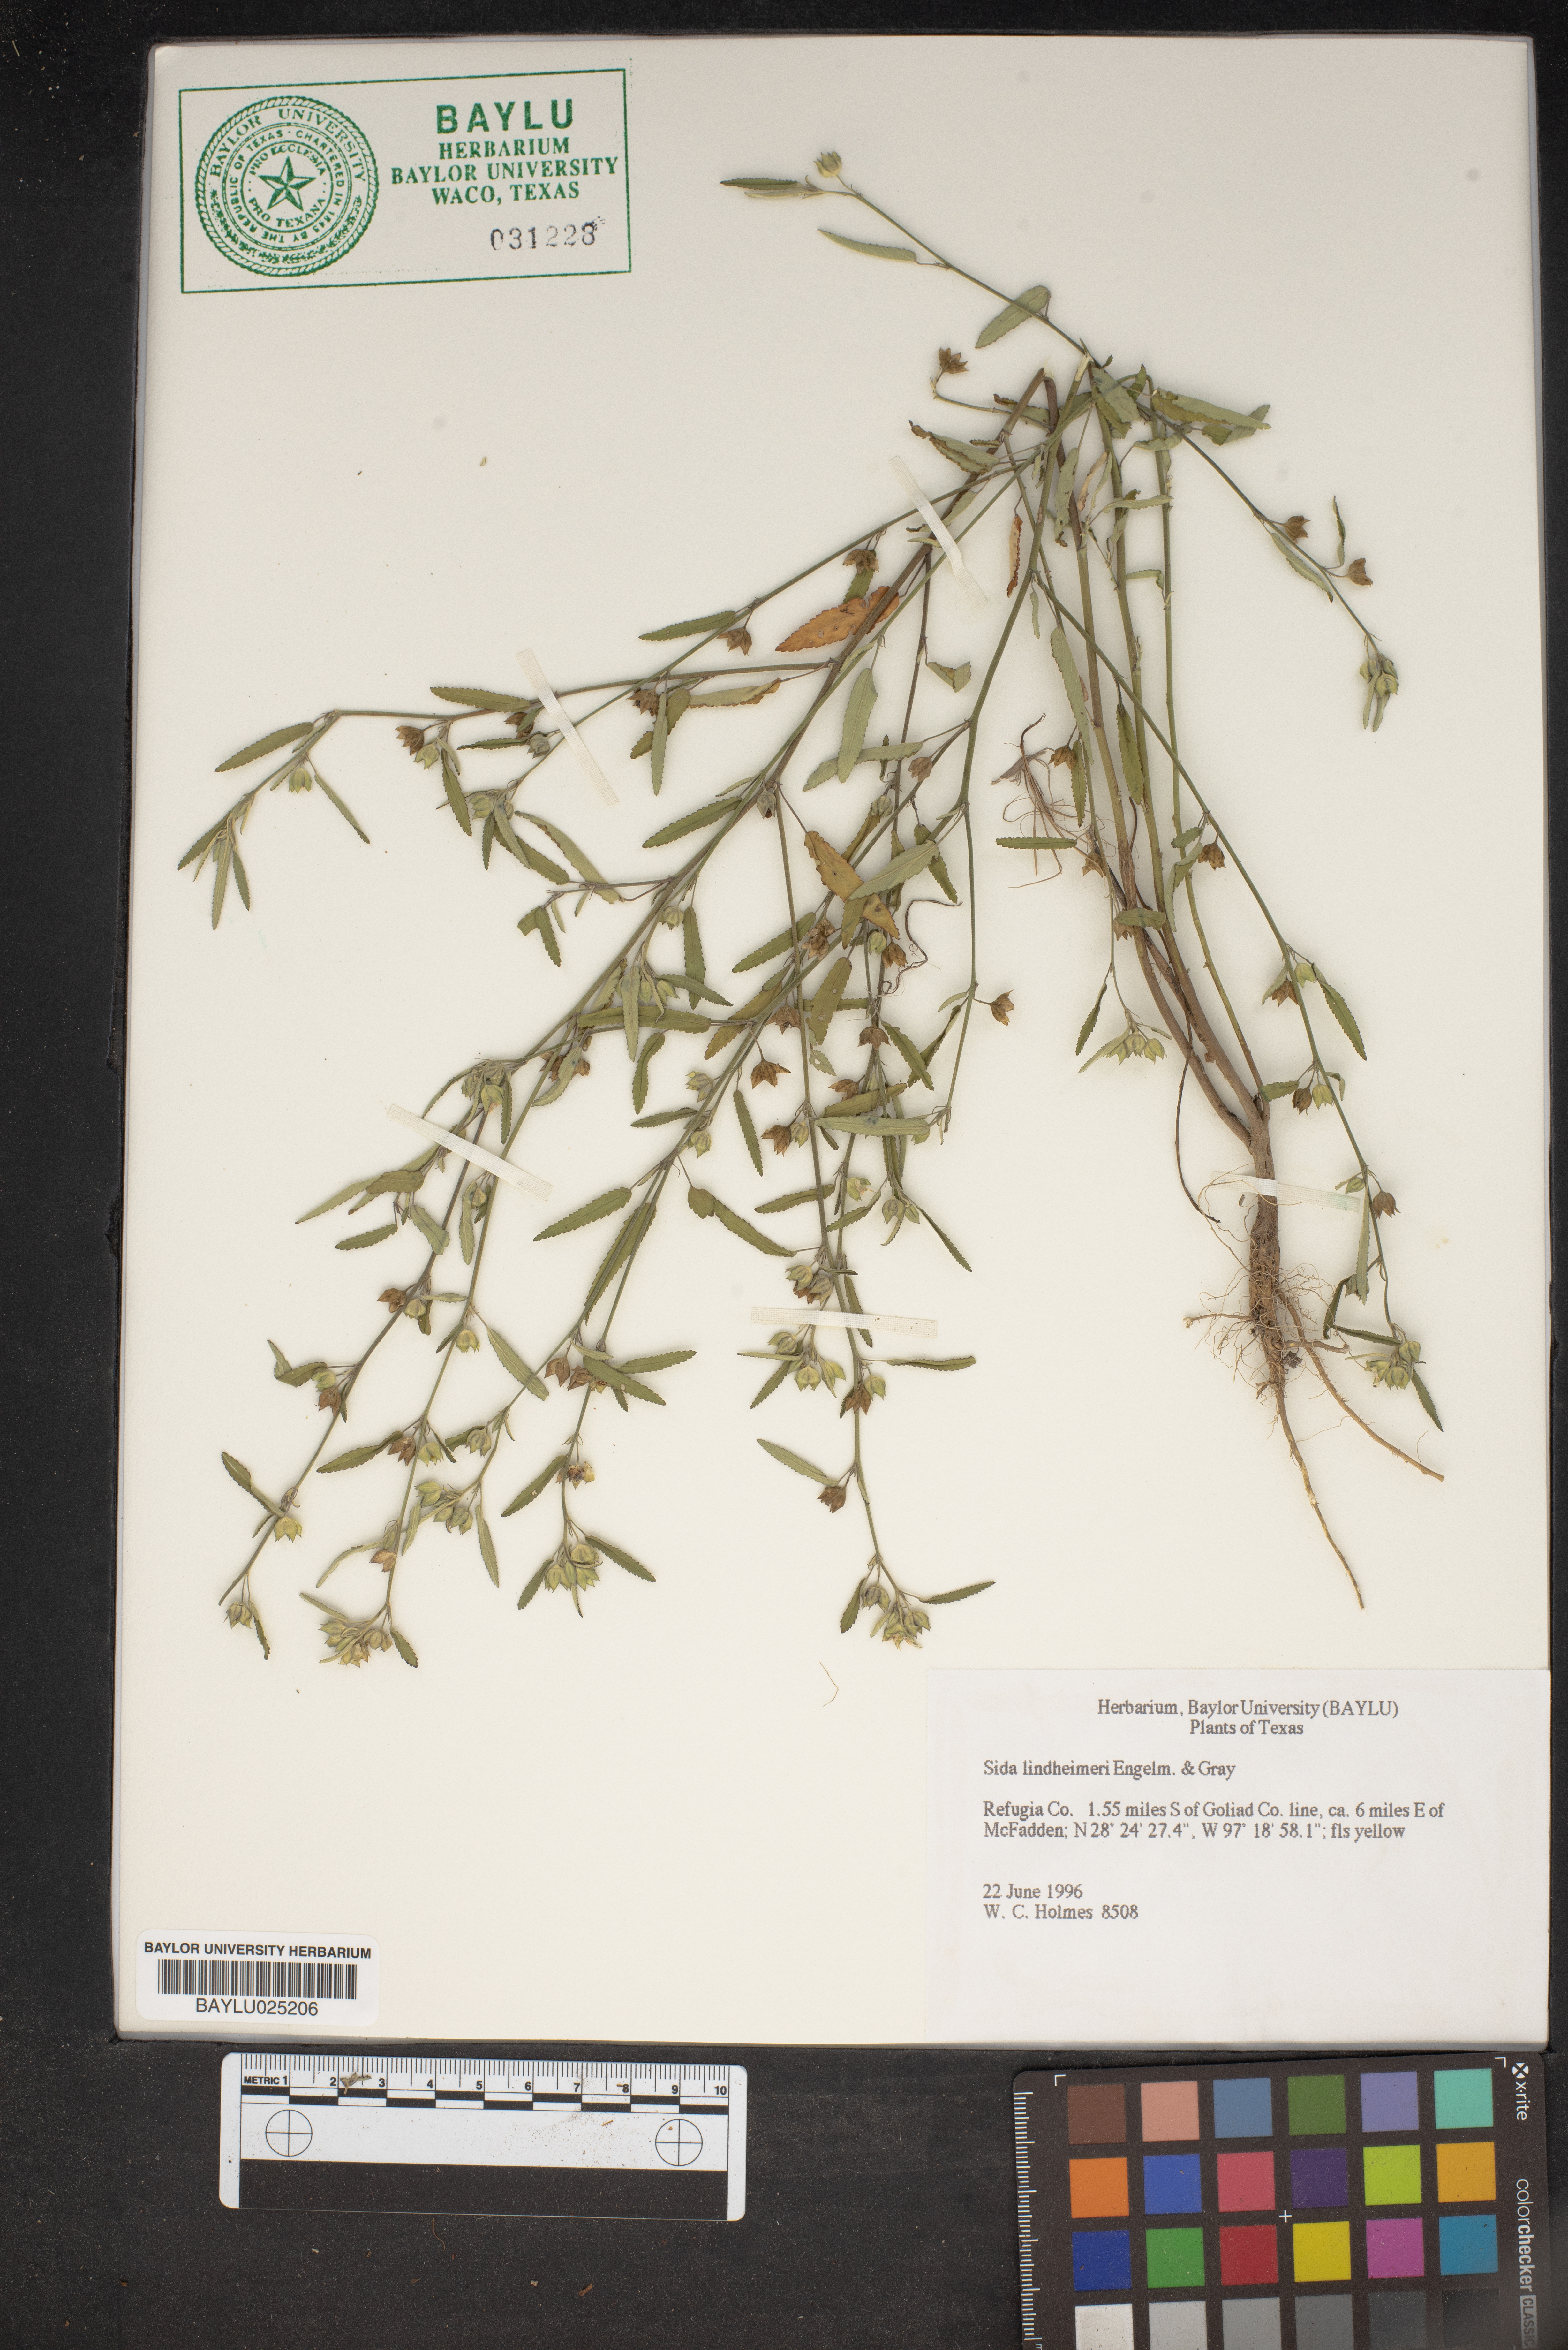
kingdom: Plantae
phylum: Tracheophyta
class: Magnoliopsida
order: Malvales
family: Malvaceae
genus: Sida
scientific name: Sida lindheimeri
